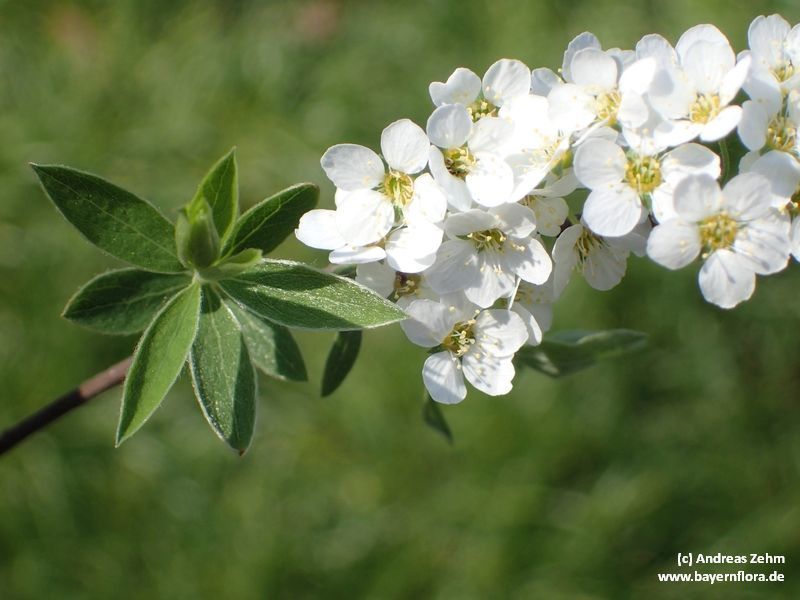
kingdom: Plantae
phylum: Tracheophyta
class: Magnoliopsida
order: Rosales
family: Rosaceae
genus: Spiraea
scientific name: Spiraea chamaedryfolia
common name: Elm-leaved spiraea
